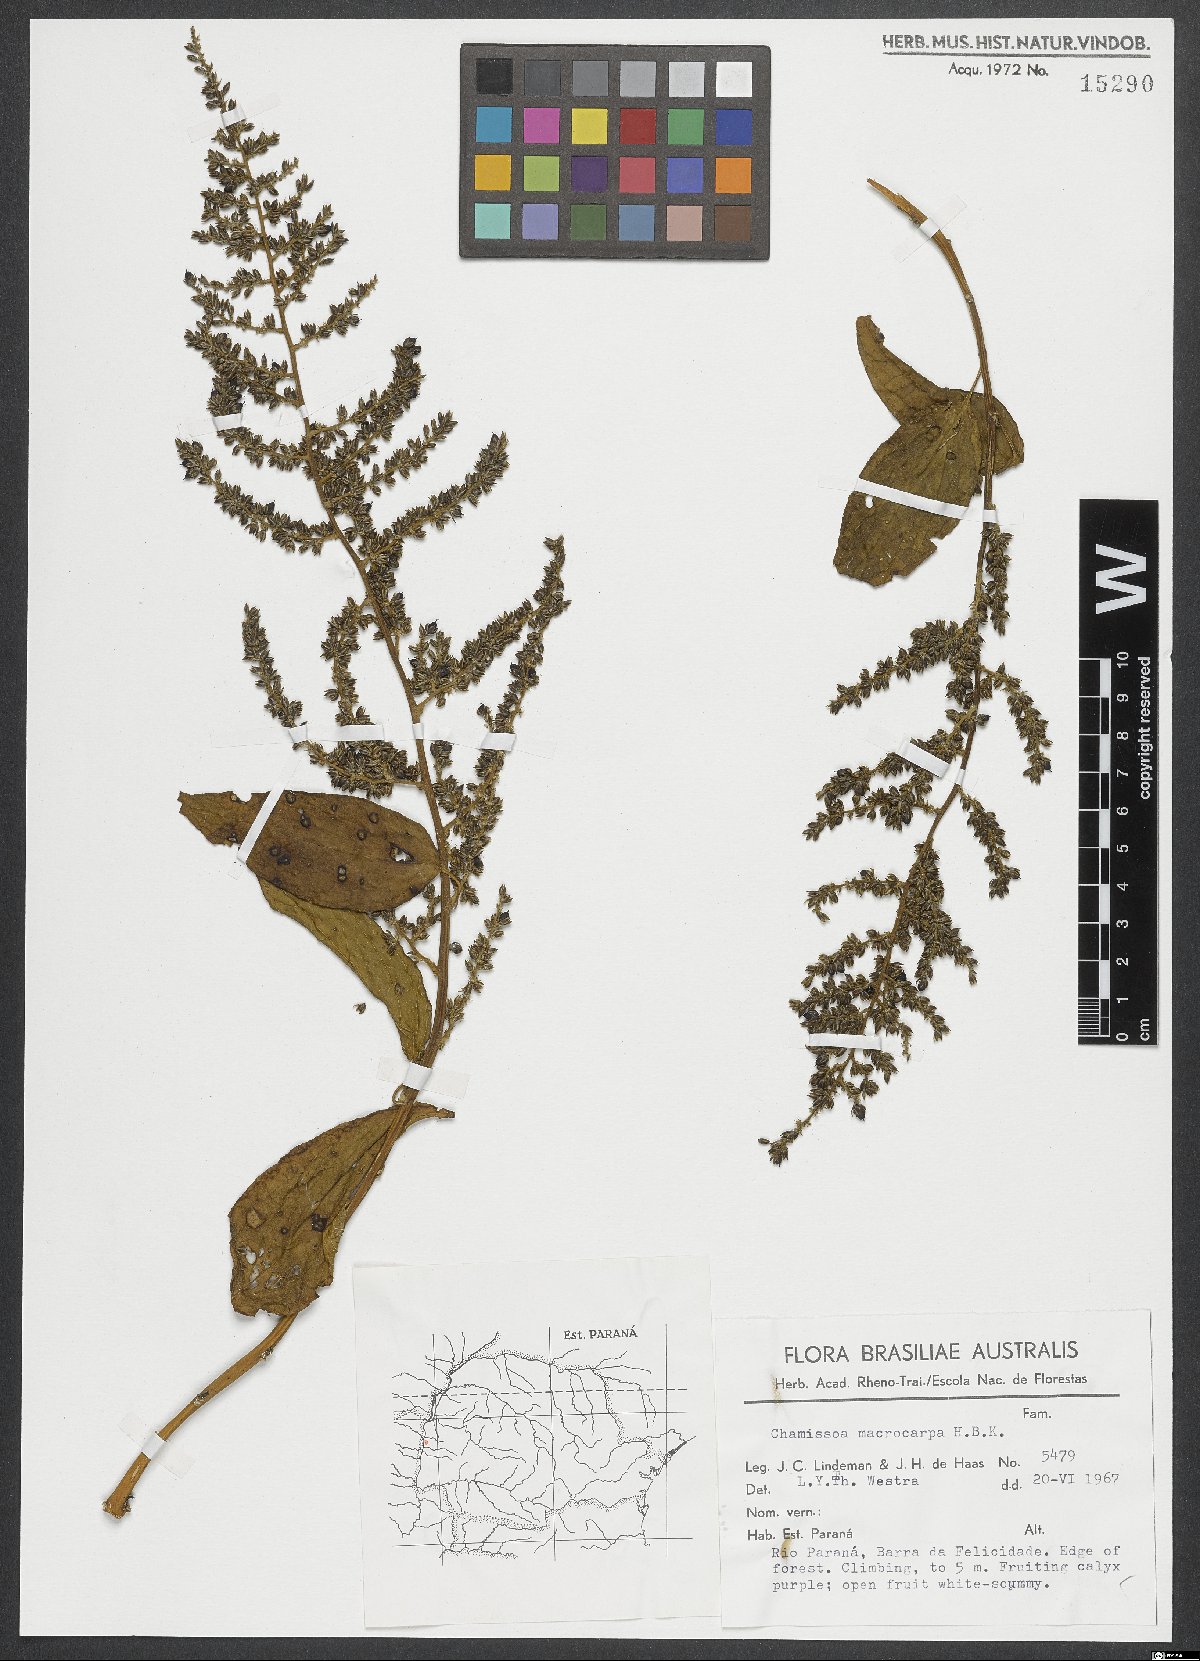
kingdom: Plantae
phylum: Tracheophyta
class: Magnoliopsida
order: Caryophyllales
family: Amaranthaceae
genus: Chamissoa
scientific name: Chamissoa altissima
